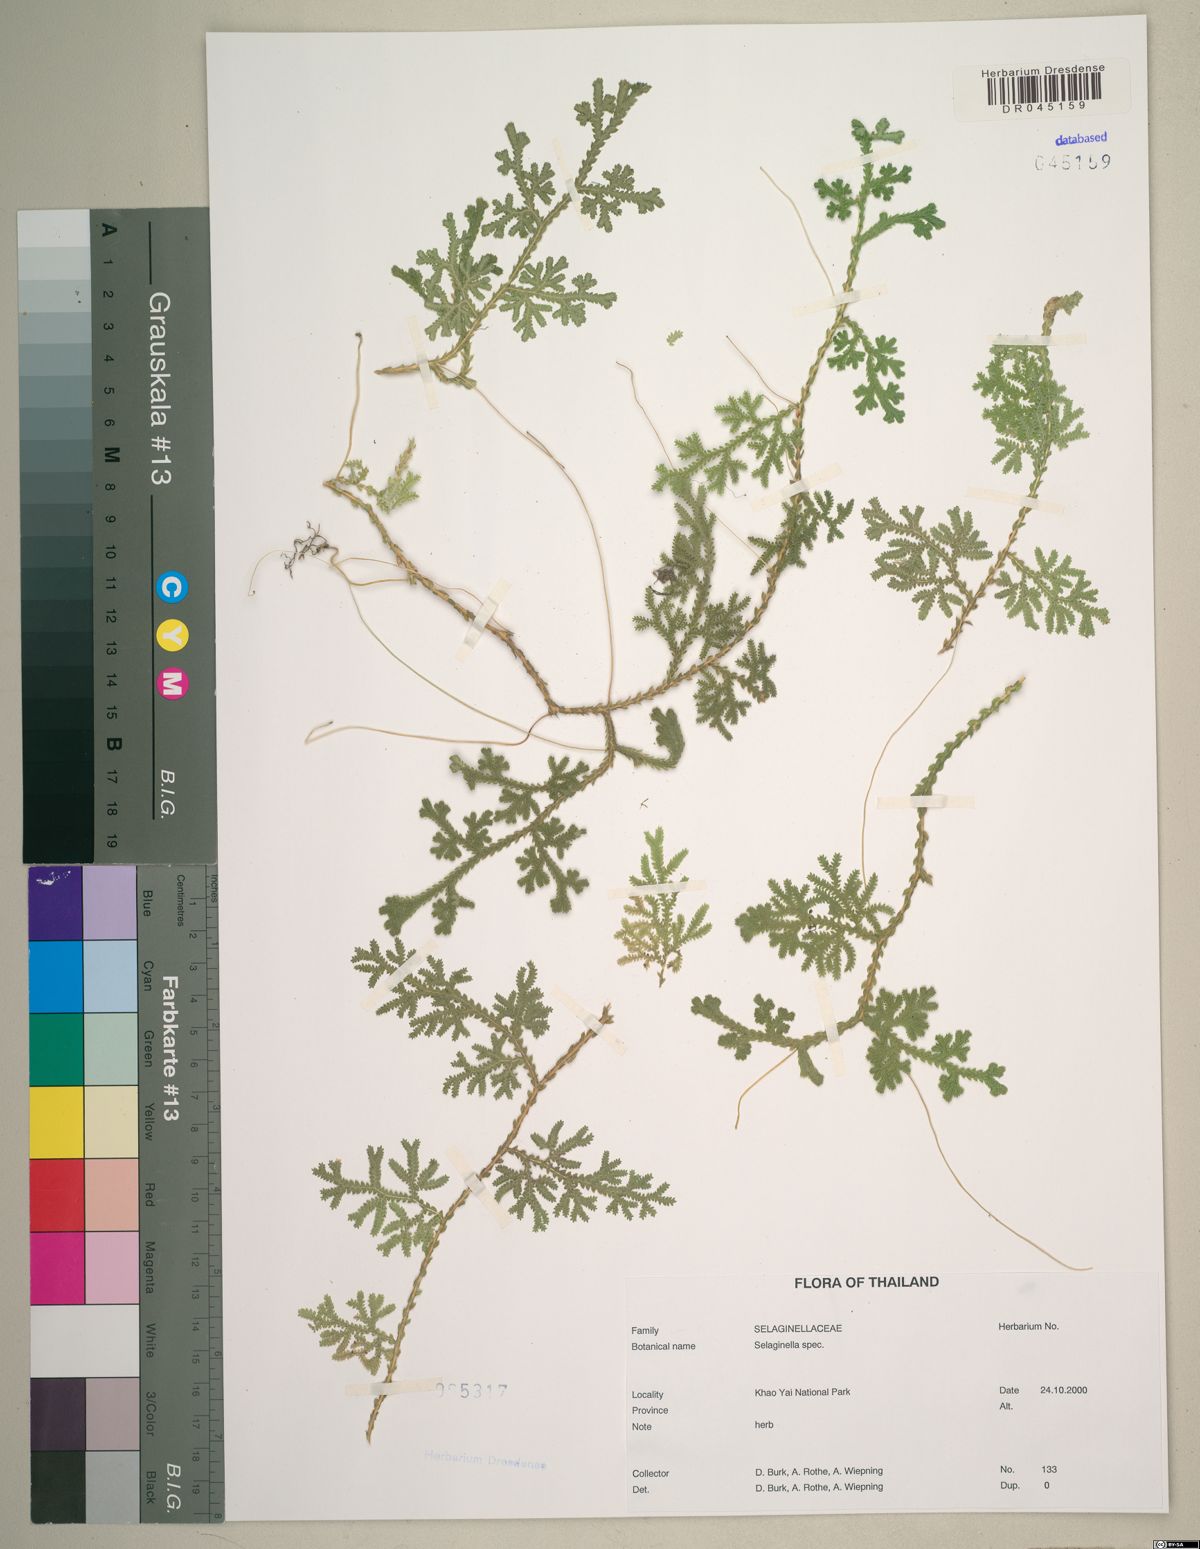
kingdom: Plantae
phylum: Tracheophyta
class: Lycopodiopsida
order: Selaginellales
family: Selaginellaceae
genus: Selaginella
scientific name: Selaginella
